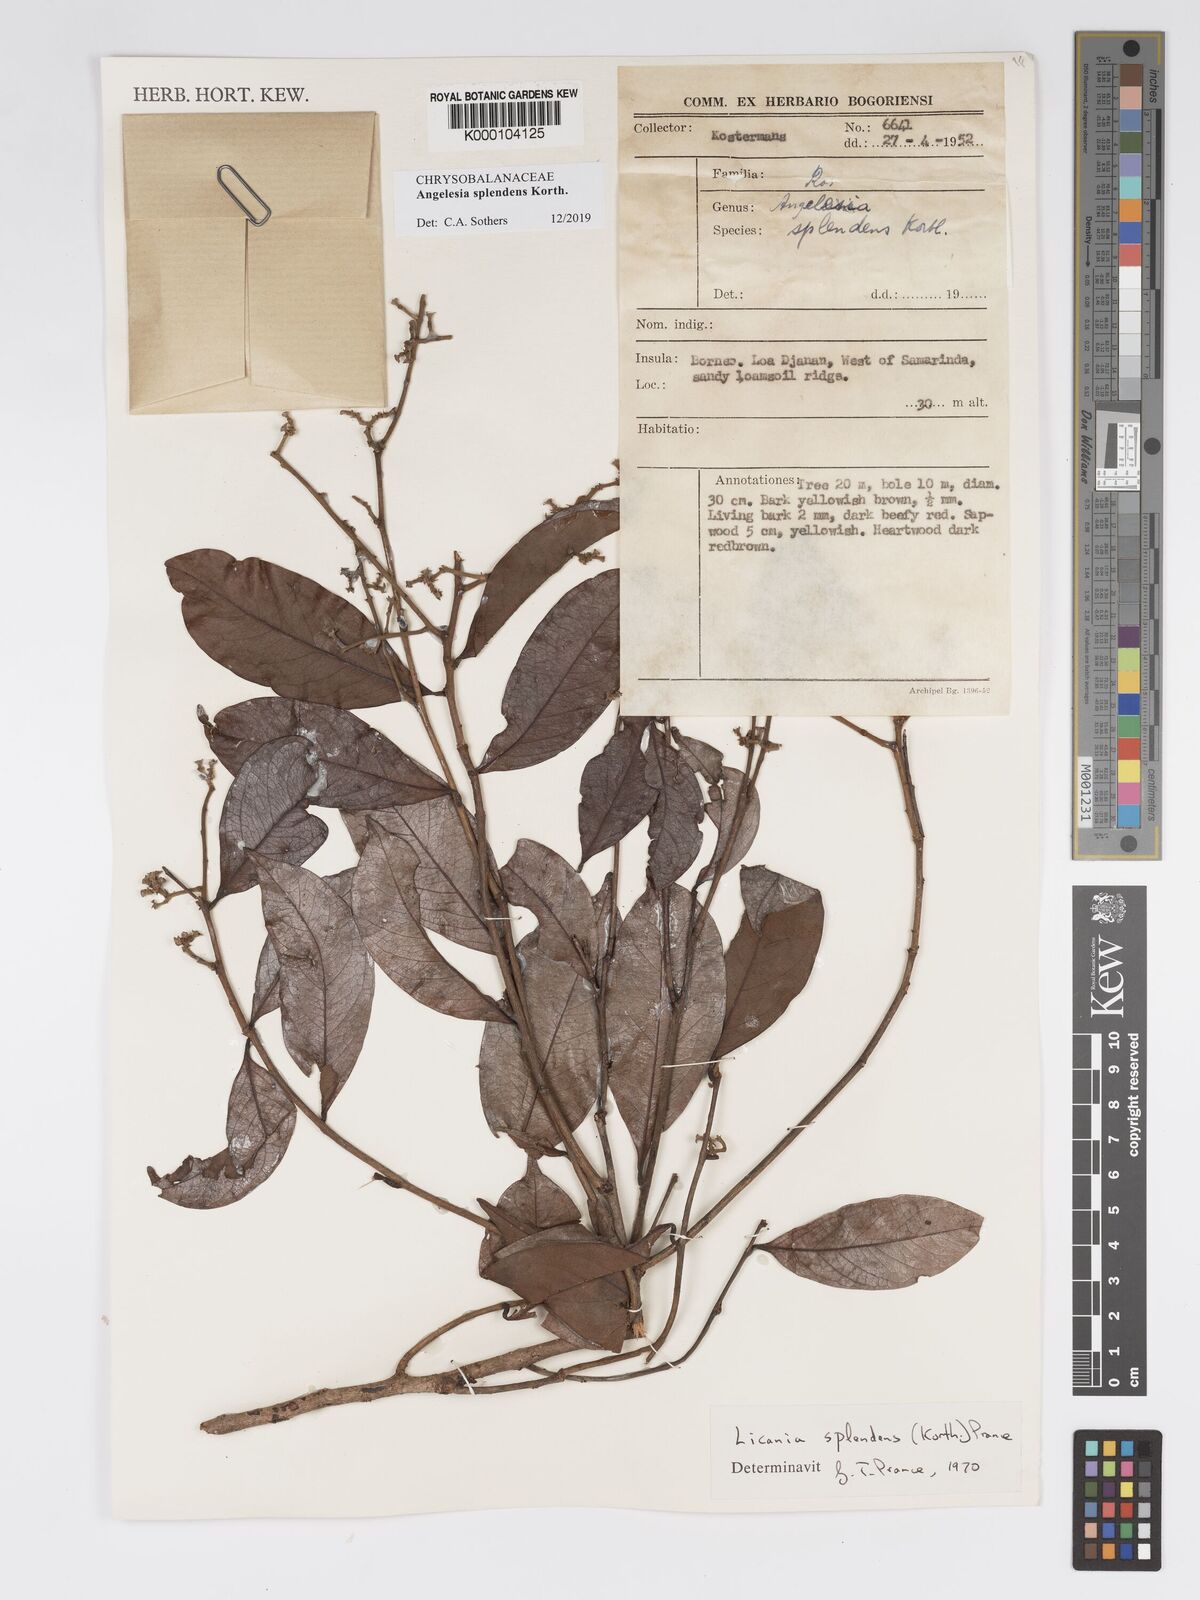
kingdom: Plantae
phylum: Tracheophyta
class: Magnoliopsida
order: Malpighiales
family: Chrysobalanaceae
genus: Angelesia
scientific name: Angelesia splendens
